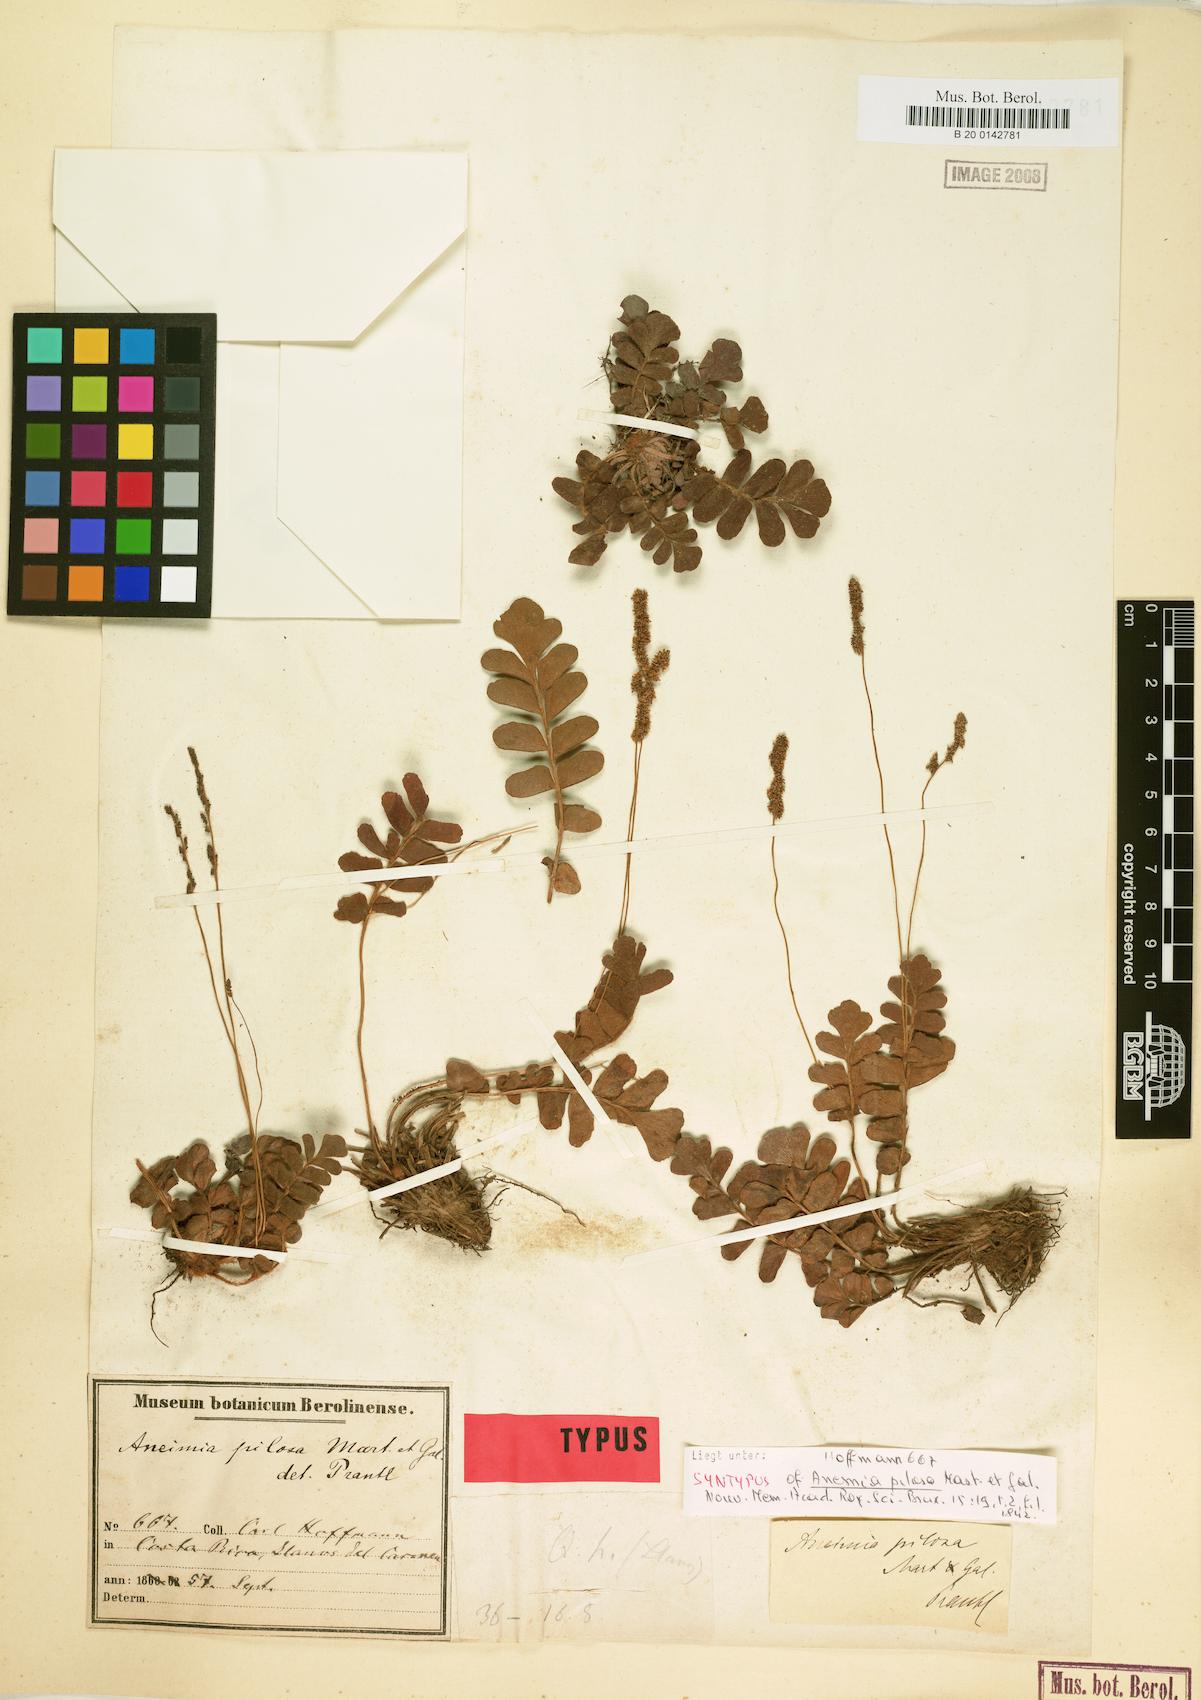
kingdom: Plantae
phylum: Tracheophyta
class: Polypodiopsida
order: Schizaeales
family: Anemiaceae
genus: Anemia
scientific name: Anemia oblongifolia
